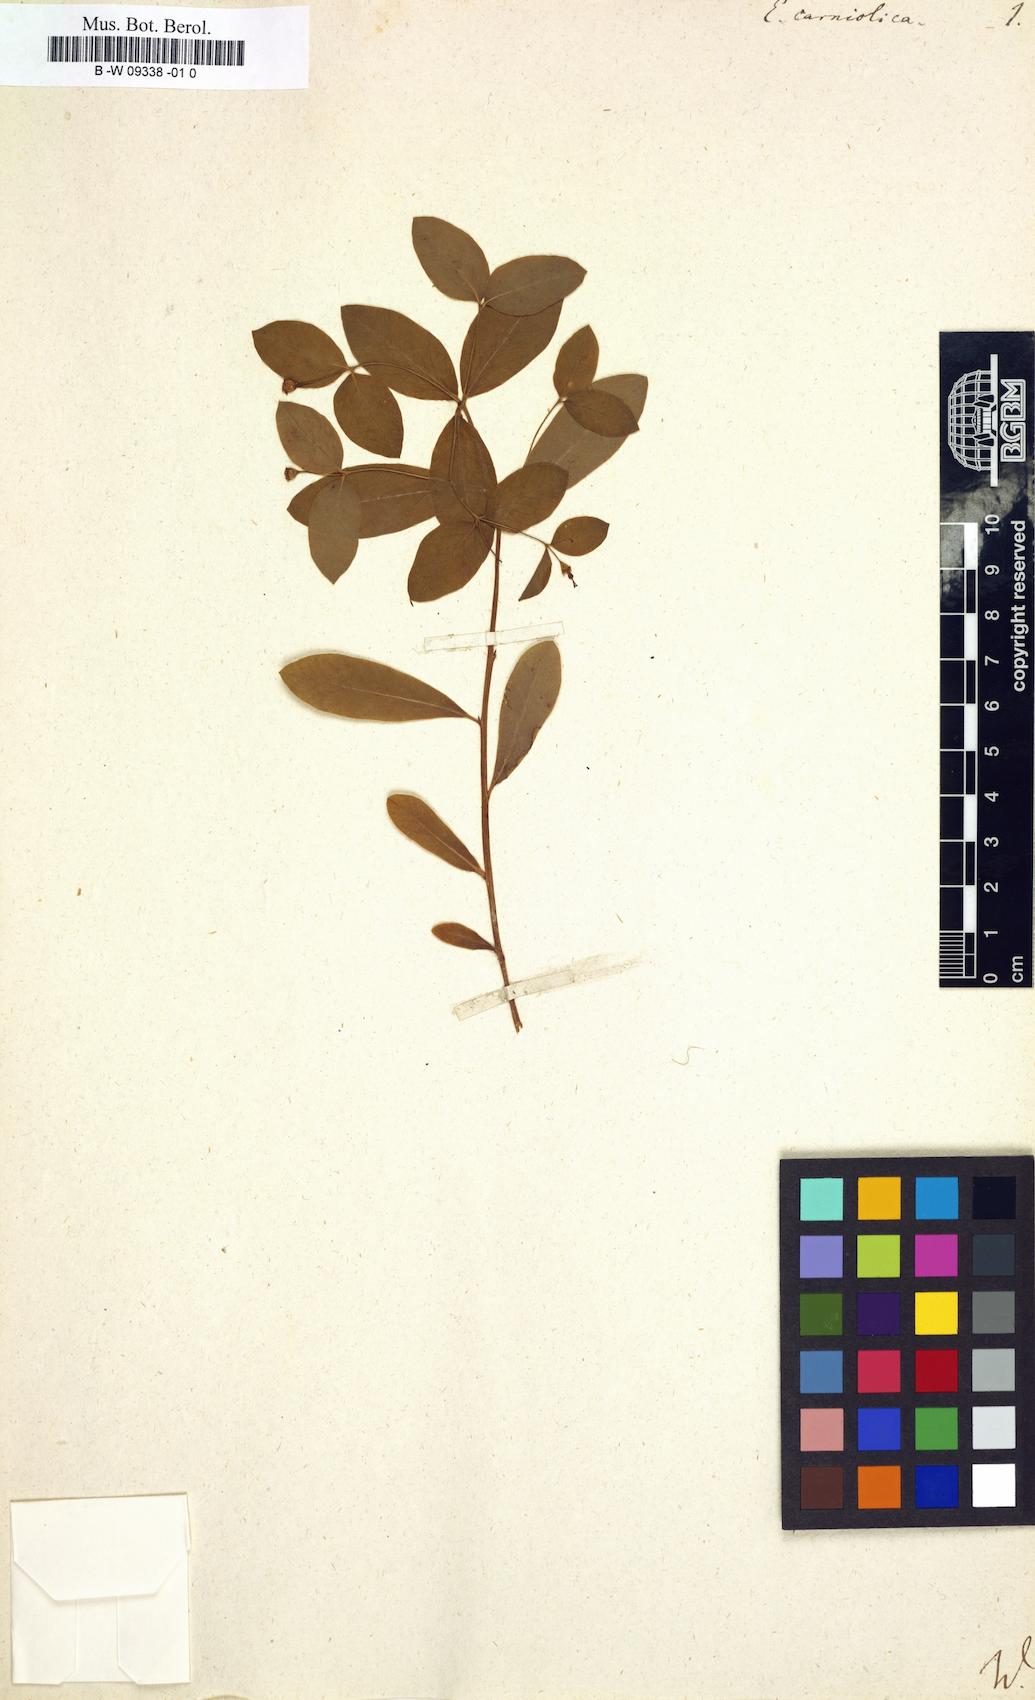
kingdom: Plantae
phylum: Tracheophyta
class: Magnoliopsida
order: Malpighiales
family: Euphorbiaceae
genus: Euphorbia
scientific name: Euphorbia carniolica
